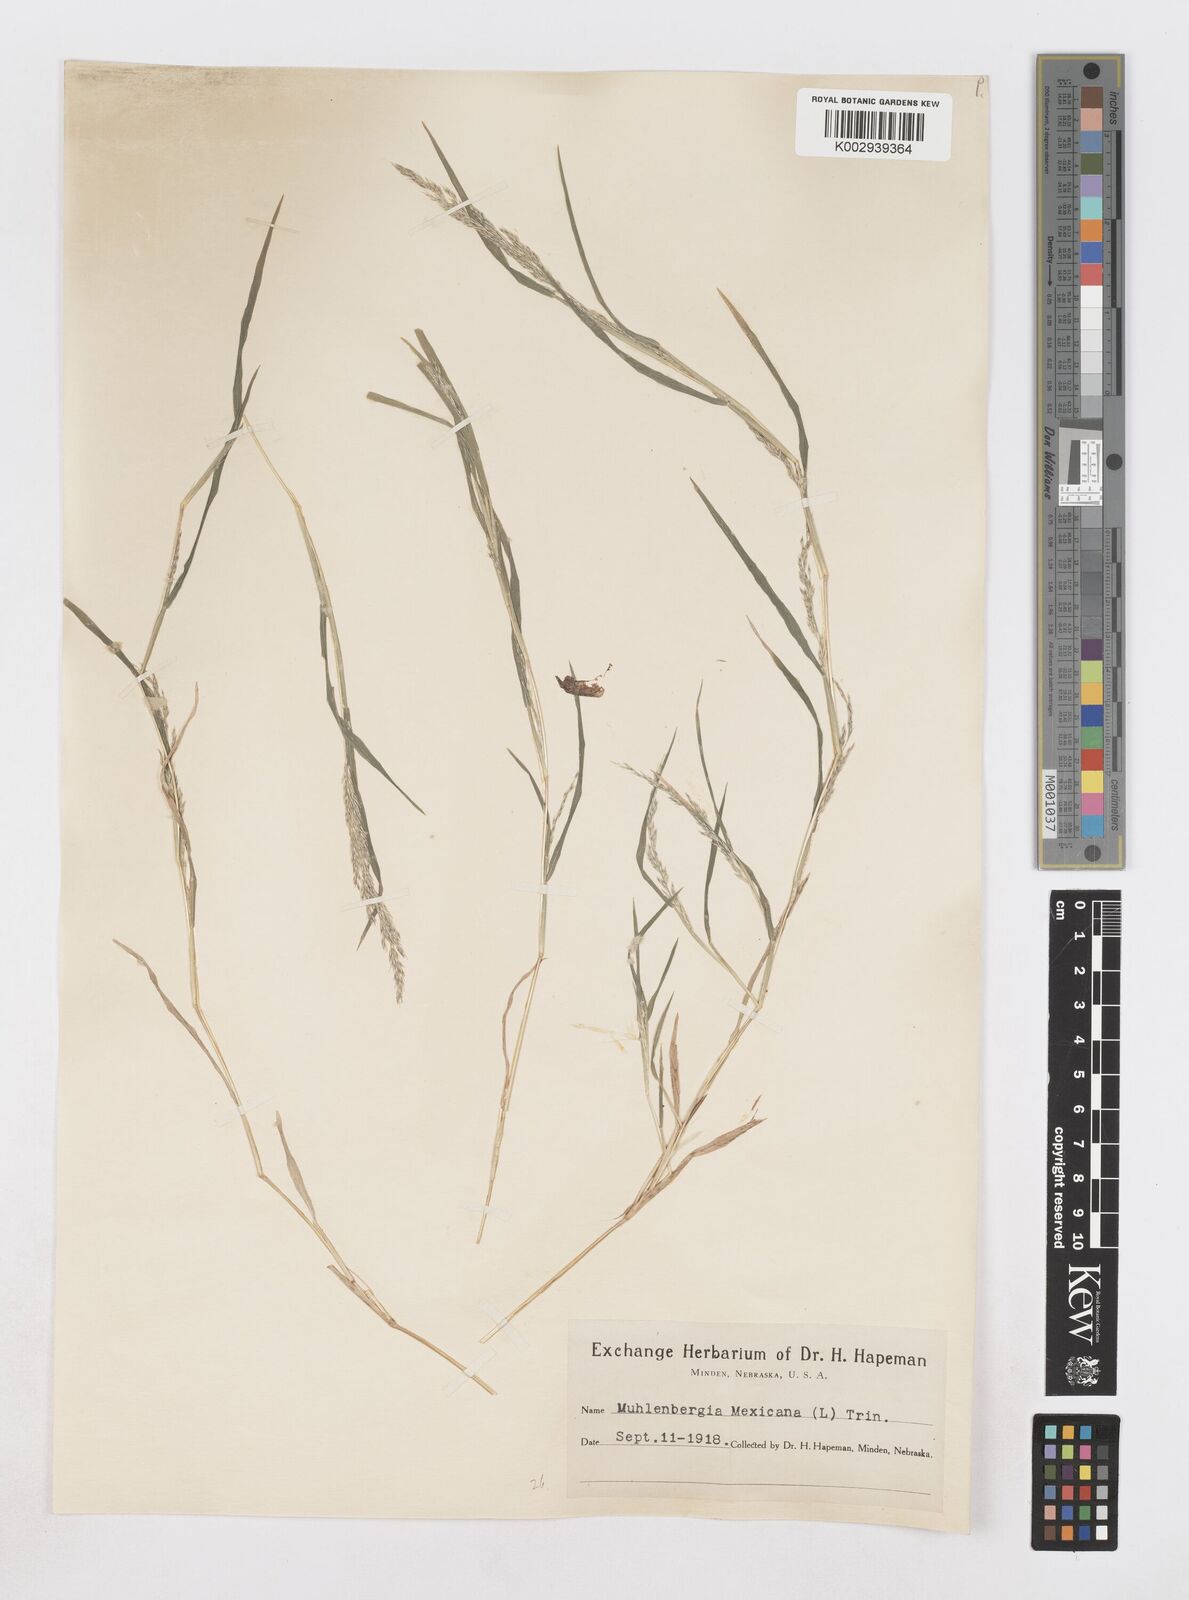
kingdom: Plantae
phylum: Tracheophyta
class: Liliopsida
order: Poales
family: Poaceae
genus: Muhlenbergia
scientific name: Muhlenbergia mexicana
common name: Mexican muhly
